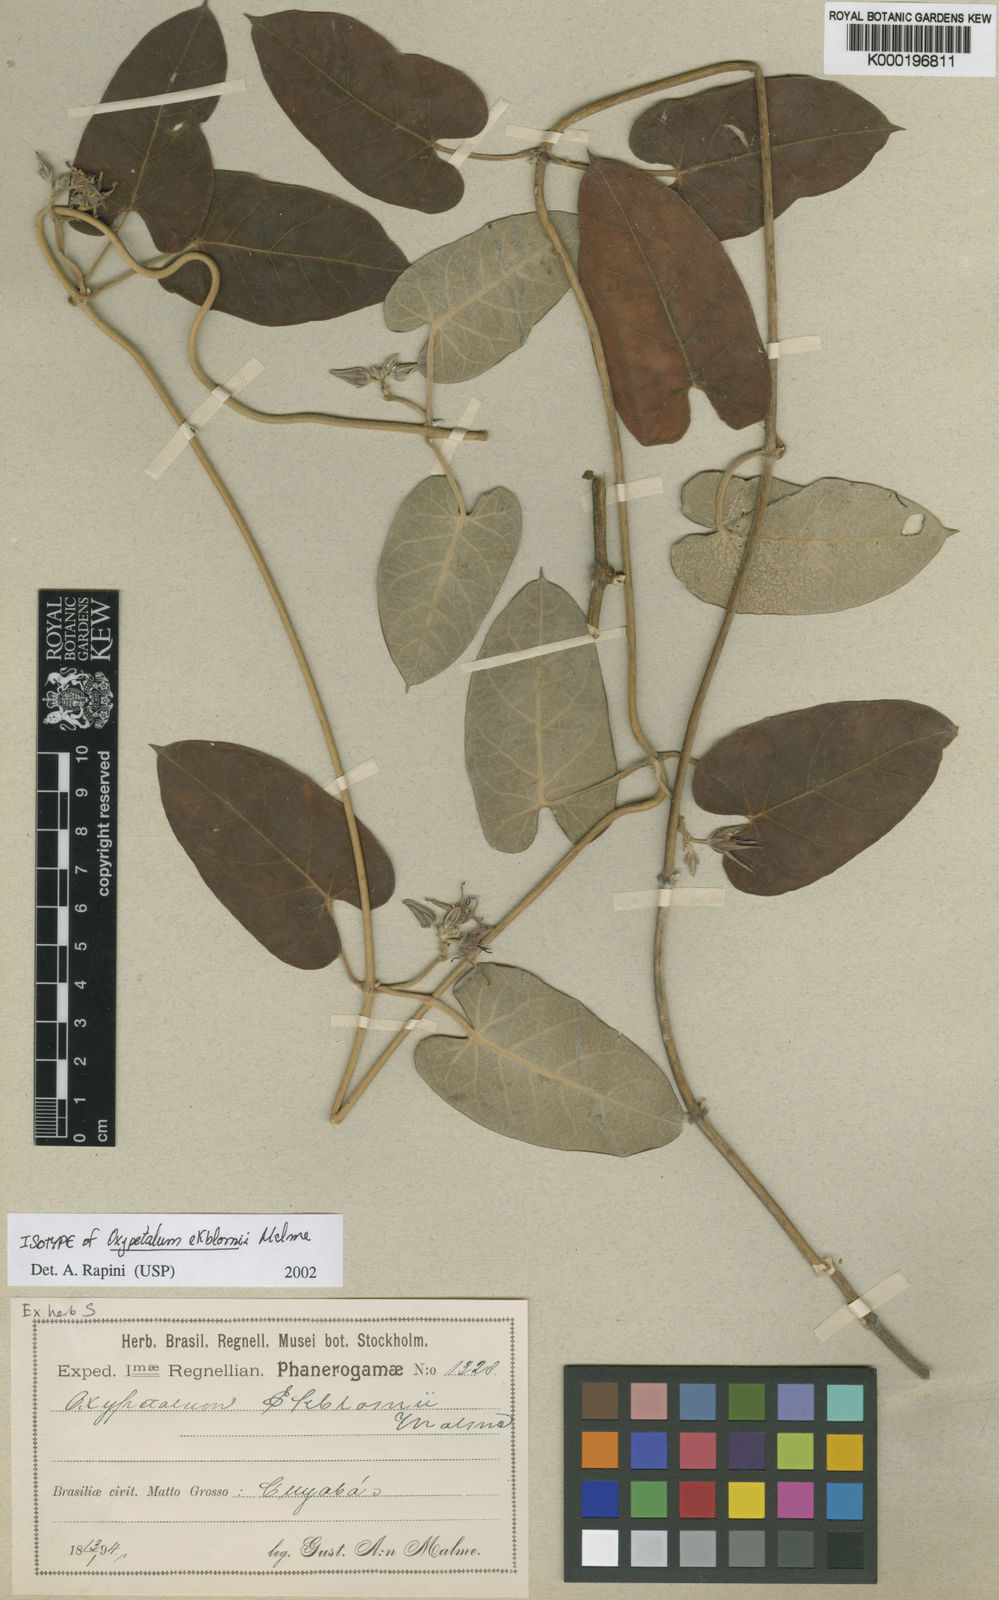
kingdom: Plantae
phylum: Tracheophyta
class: Magnoliopsida
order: Gentianales
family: Apocynaceae
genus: Oxypetalum
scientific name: Oxypetalum ekblomii
